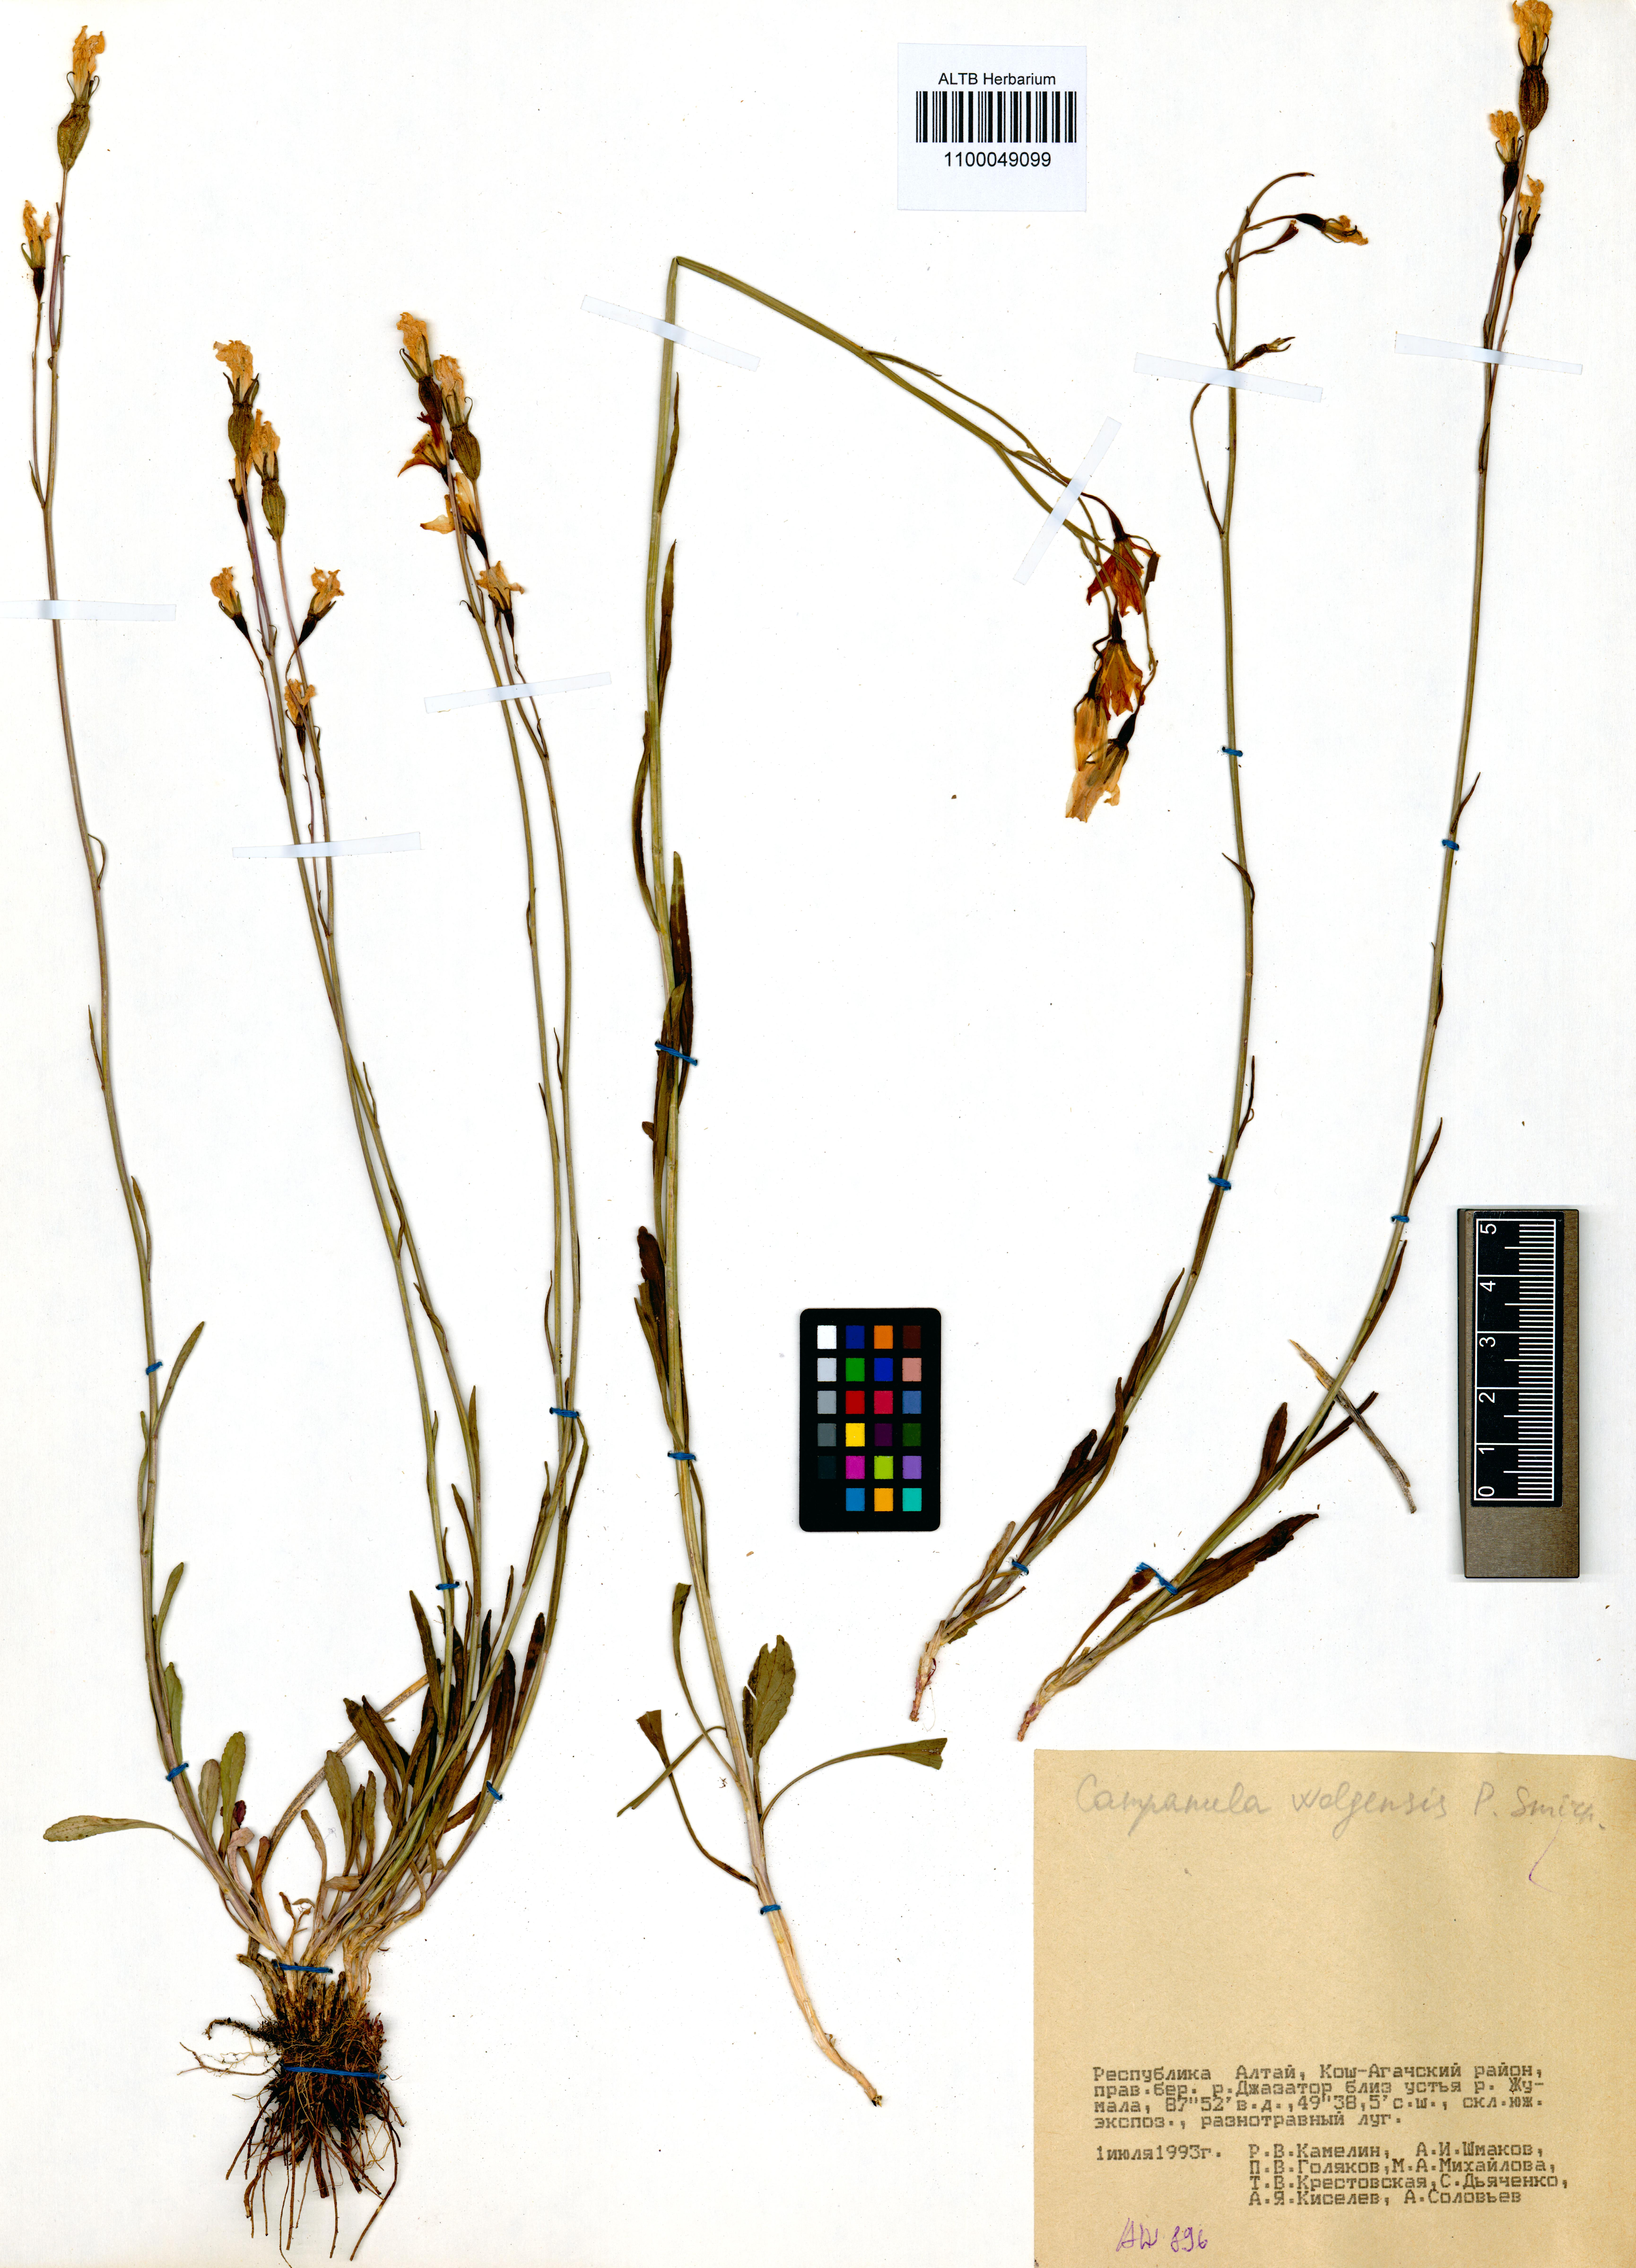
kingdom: Plantae
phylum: Tracheophyta
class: Magnoliopsida
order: Asterales
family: Campanulaceae
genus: Campanula
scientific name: Campanula stevenii
